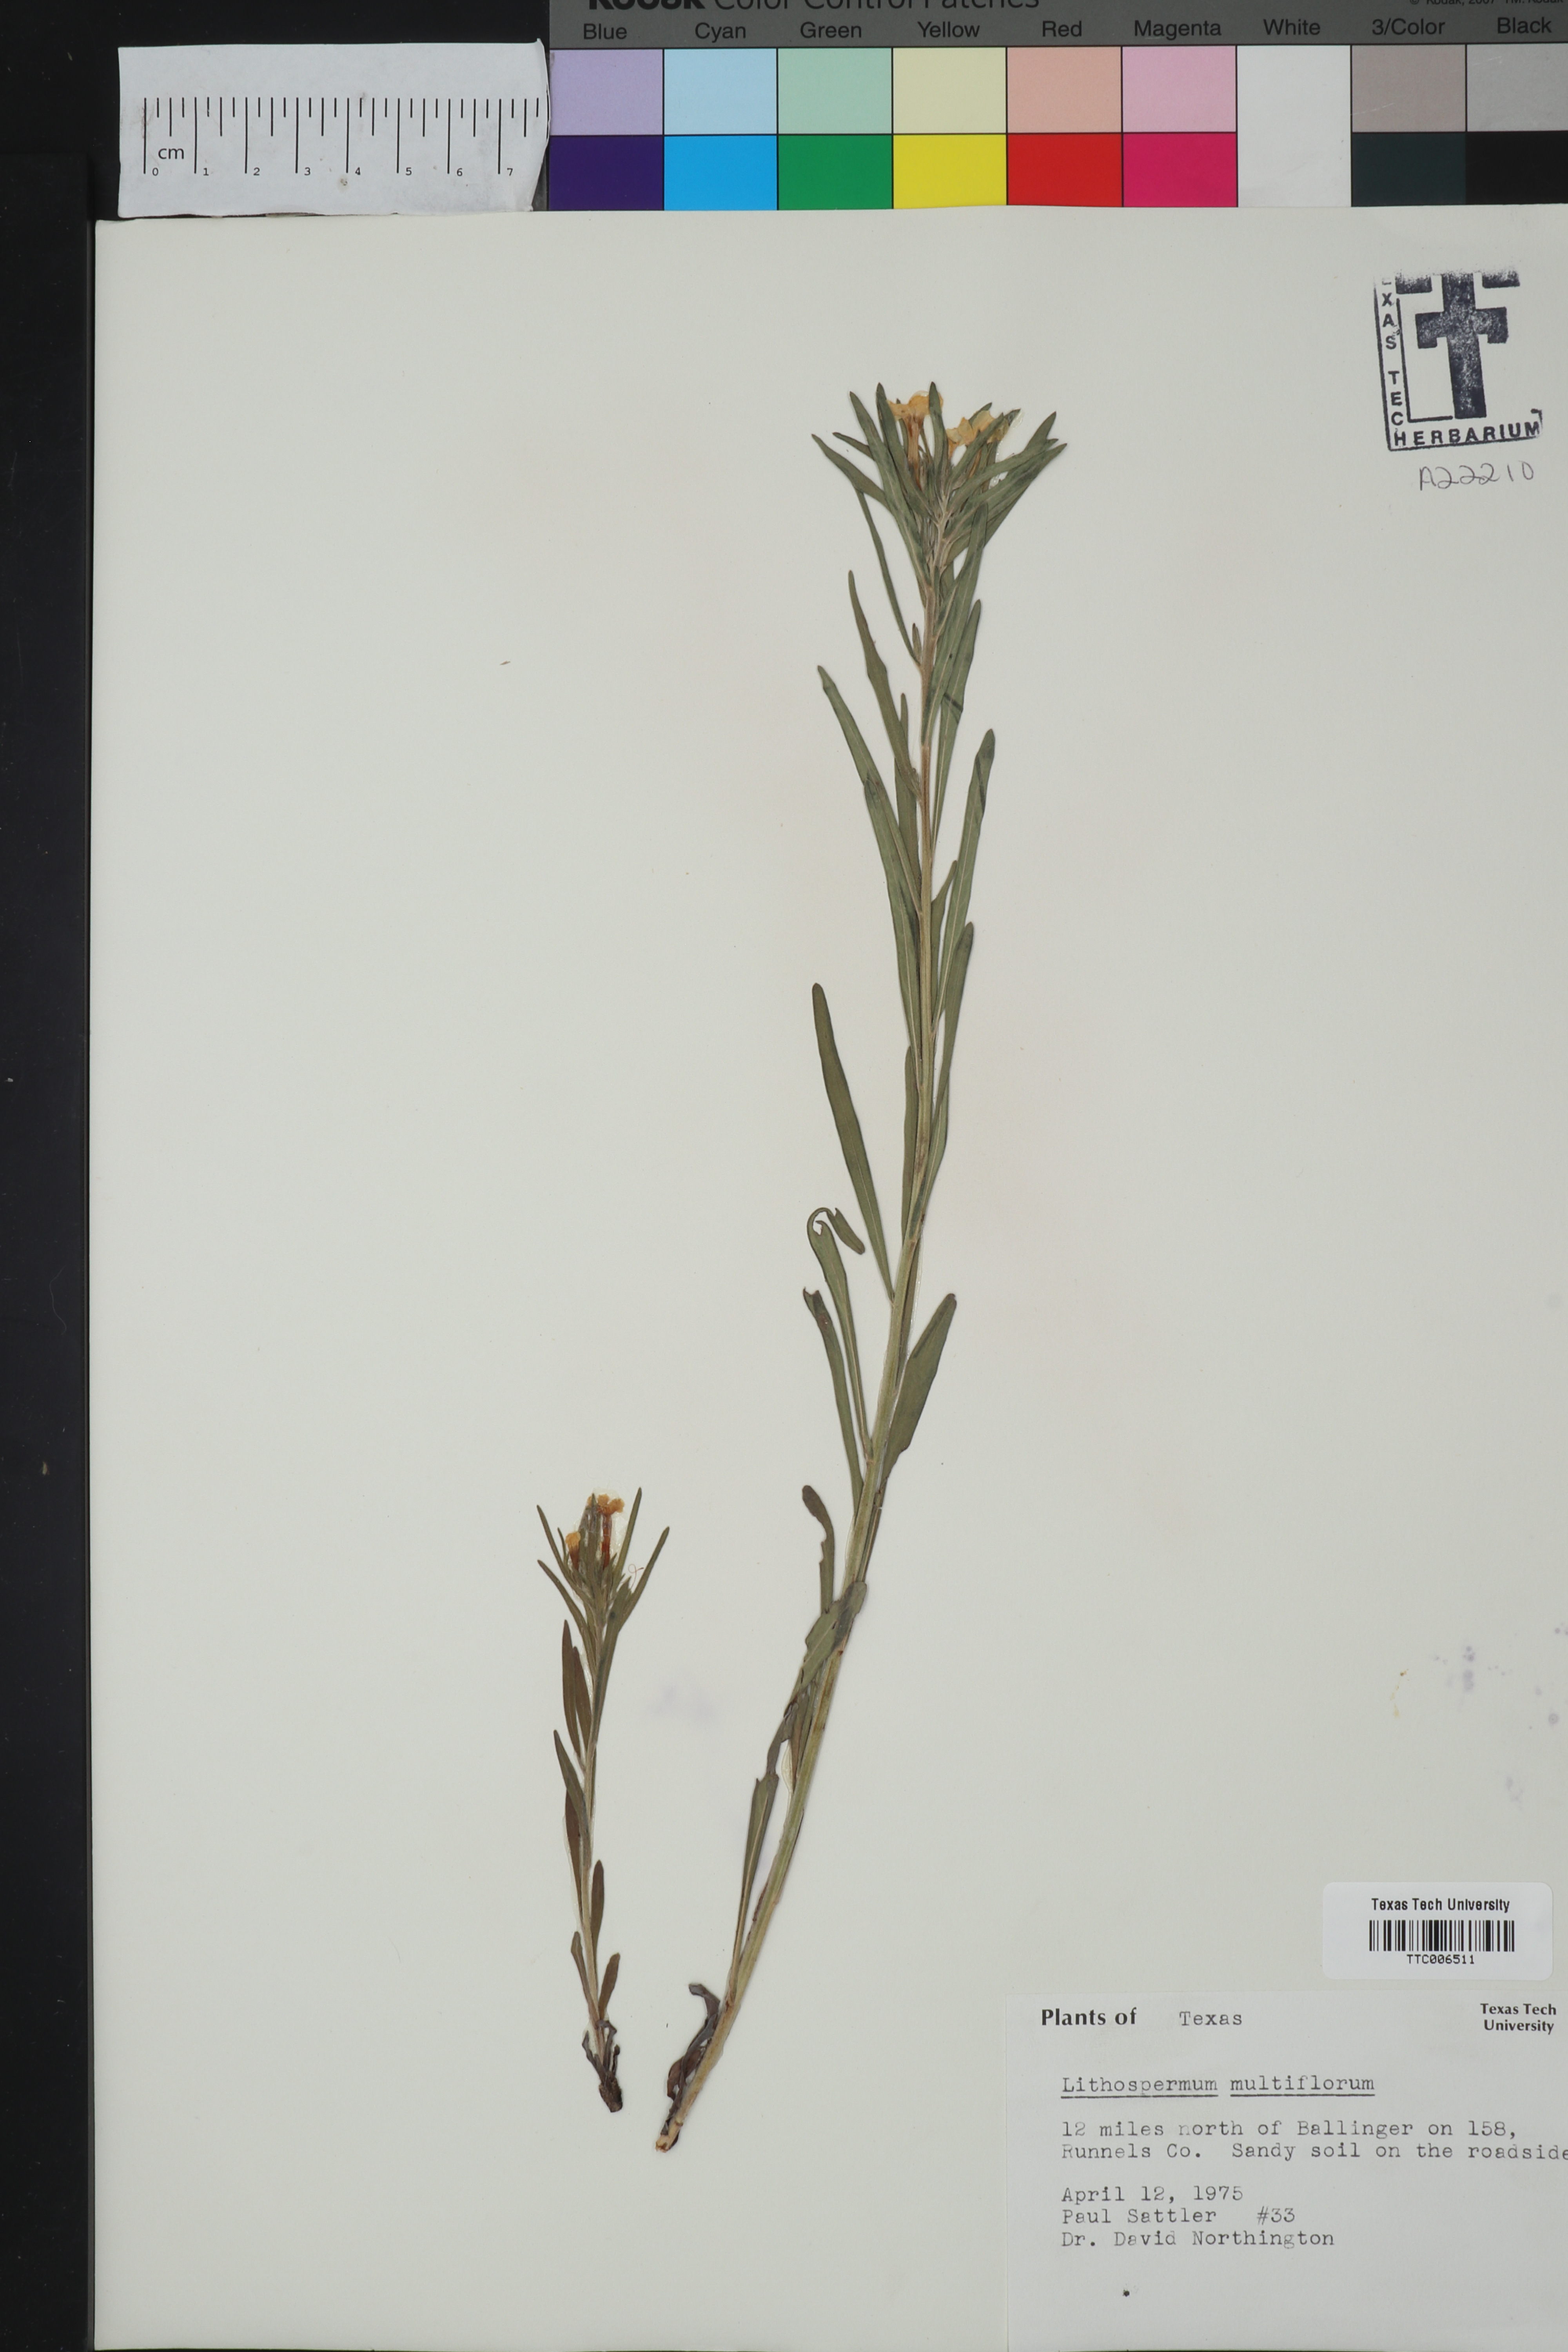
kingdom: Plantae
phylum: Tracheophyta
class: Magnoliopsida
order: Boraginales
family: Boraginaceae
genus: Lithospermum
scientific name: Lithospermum multiflorum
